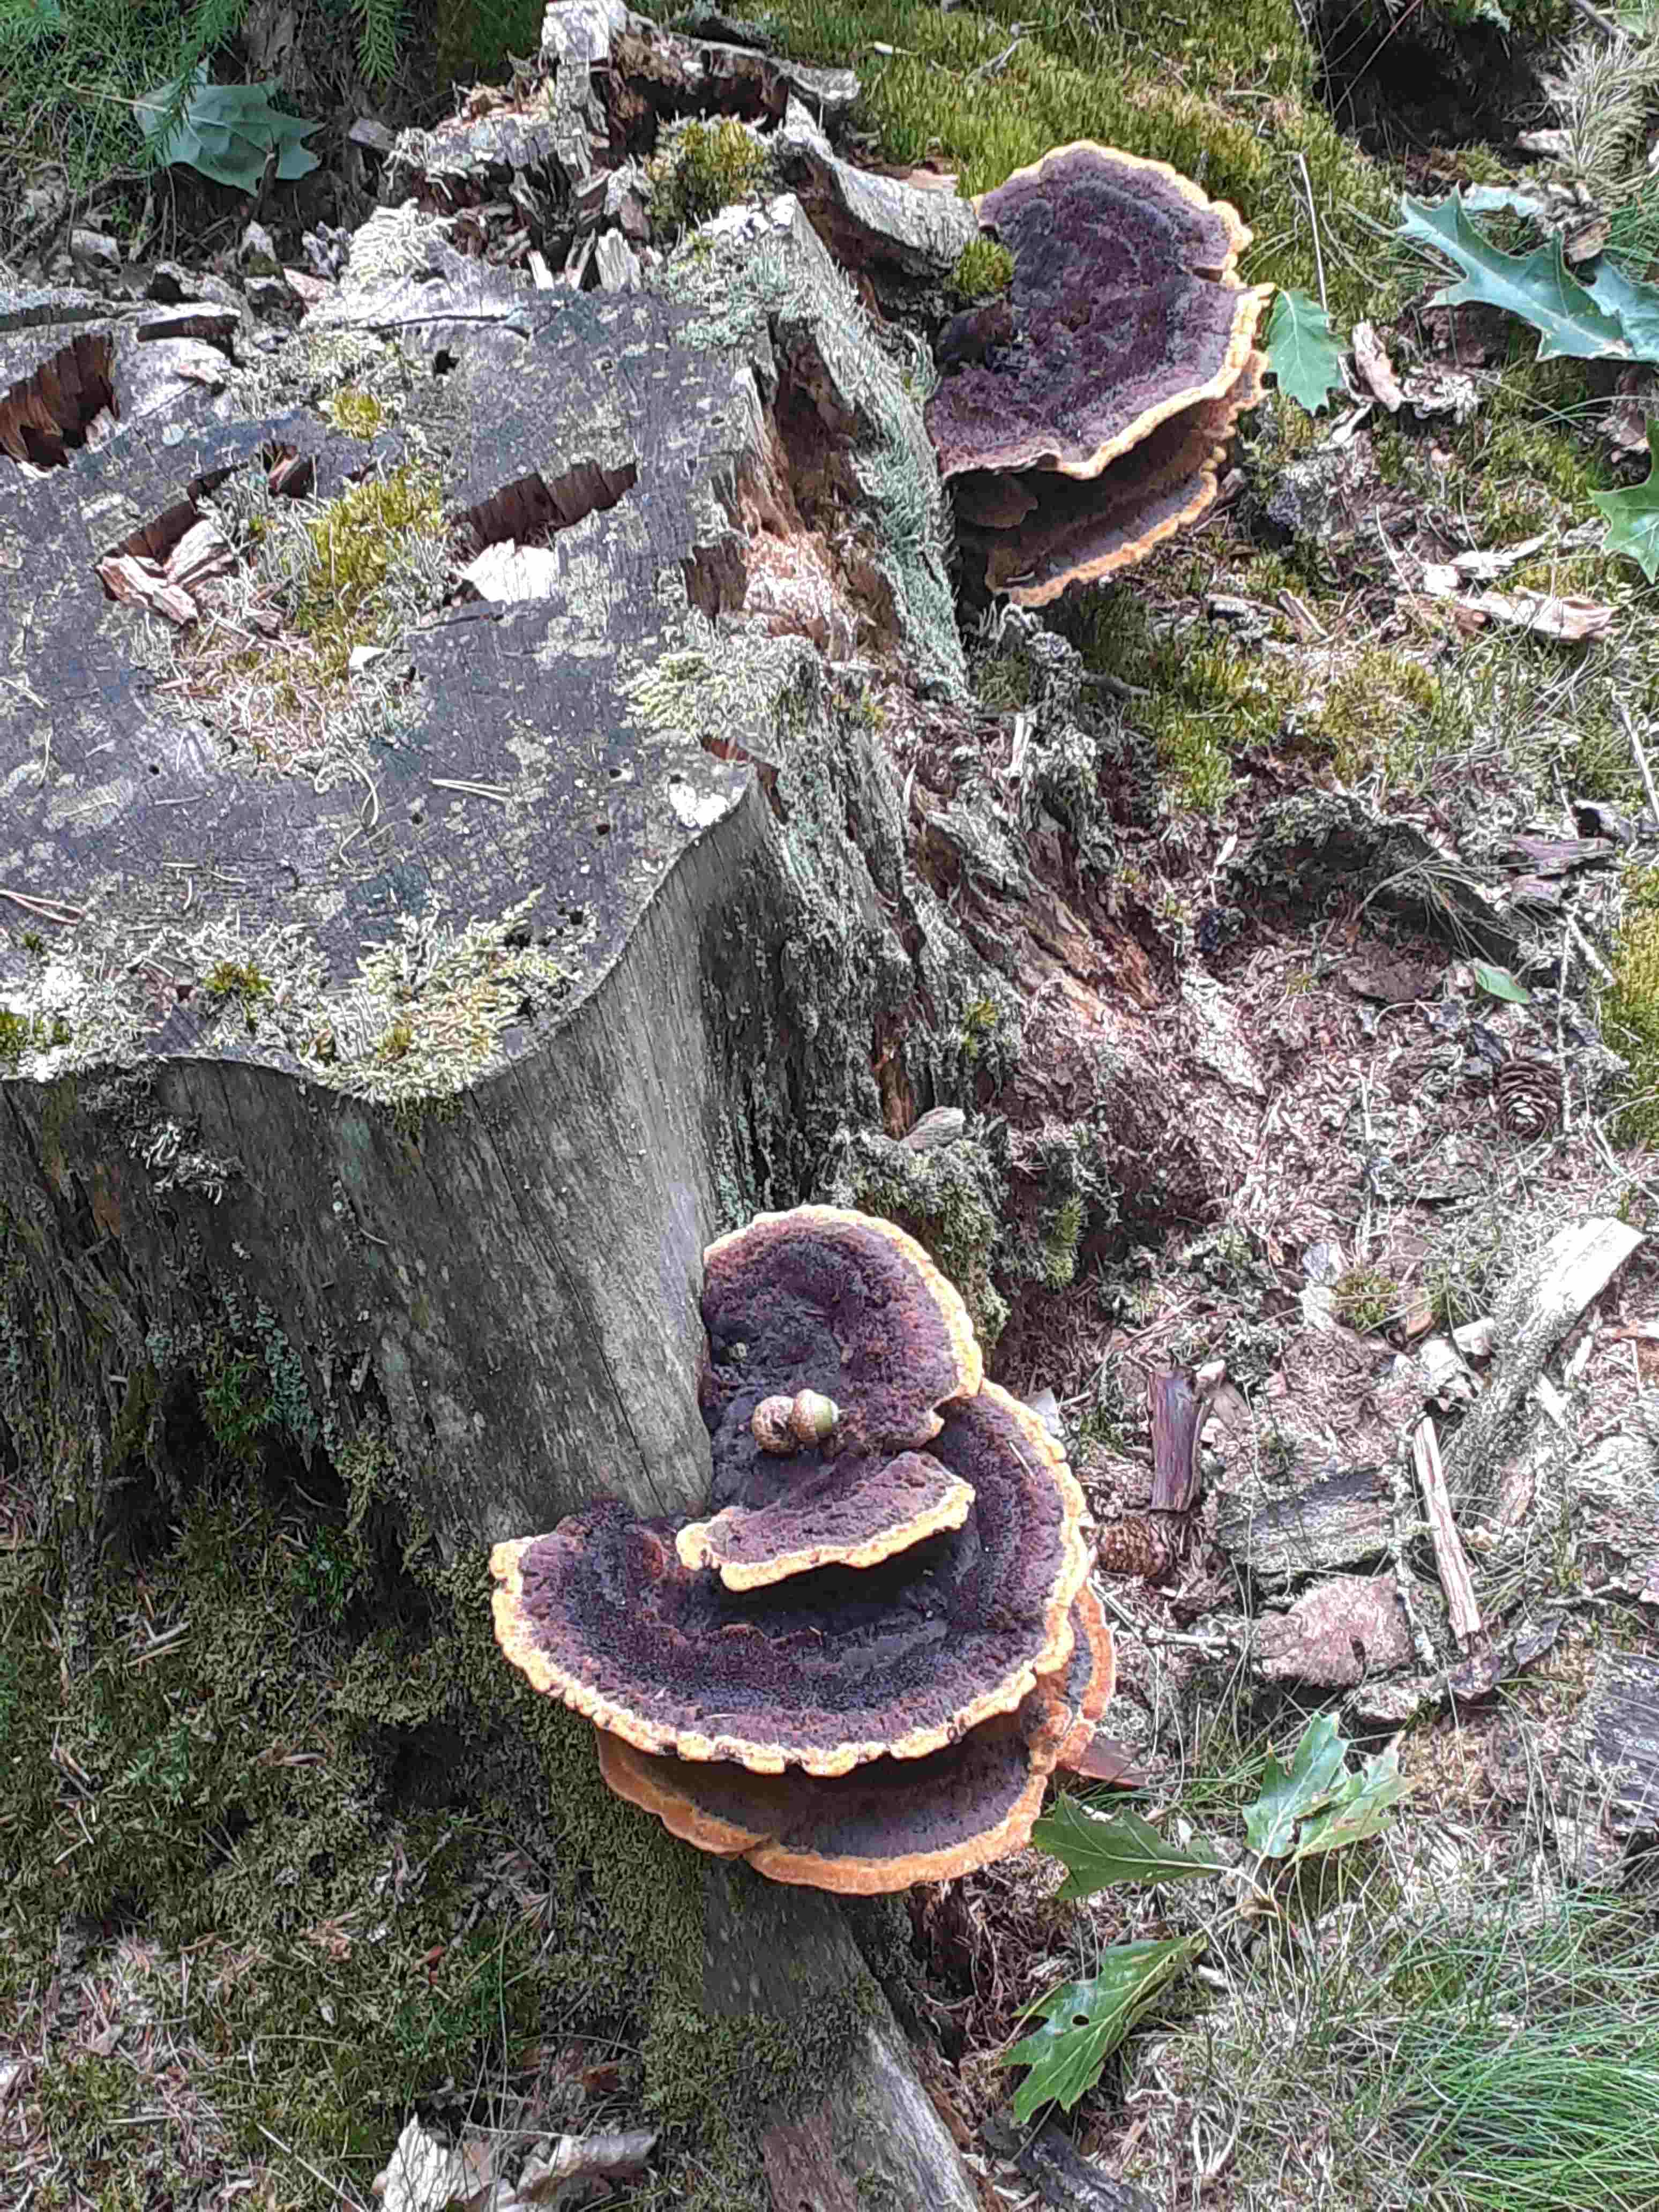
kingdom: Fungi
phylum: Basidiomycota
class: Agaricomycetes
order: Polyporales
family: Laetiporaceae
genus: Phaeolus
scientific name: Phaeolus schweinitzii
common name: brunporesvamp
